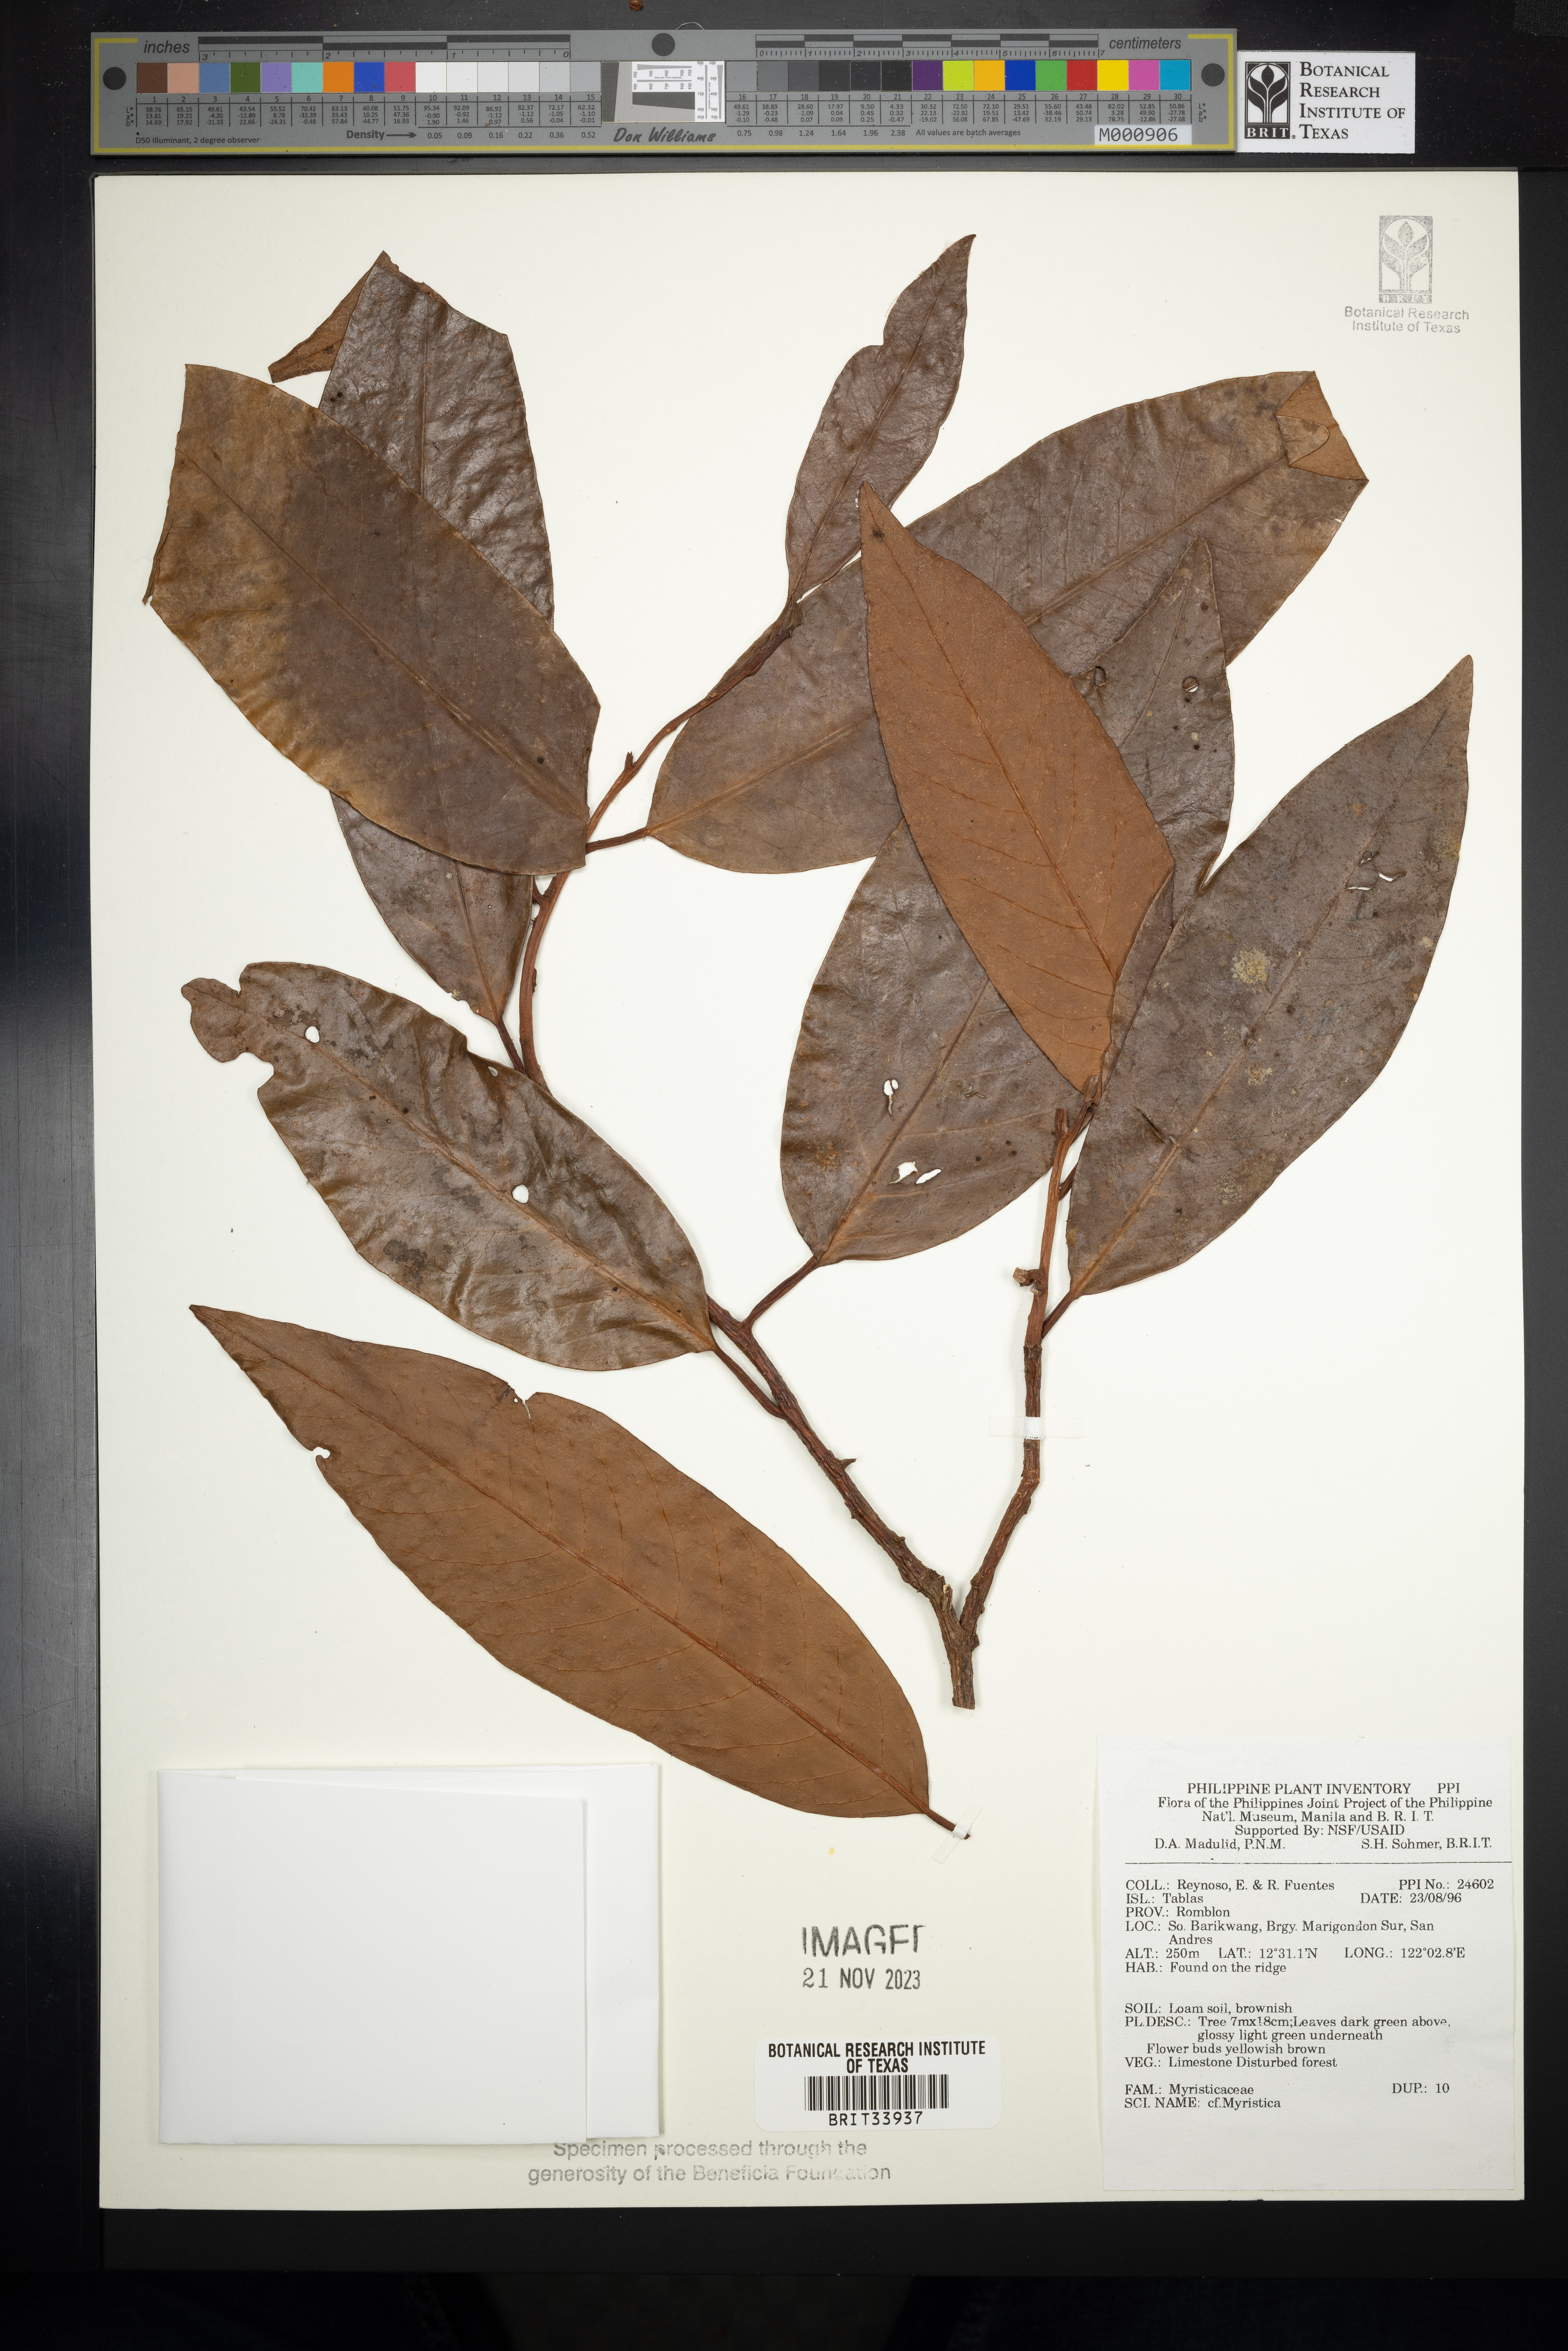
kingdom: Plantae
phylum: Tracheophyta
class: Magnoliopsida
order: Magnoliales
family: Myristicaceae
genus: Myristica
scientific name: Myristica
